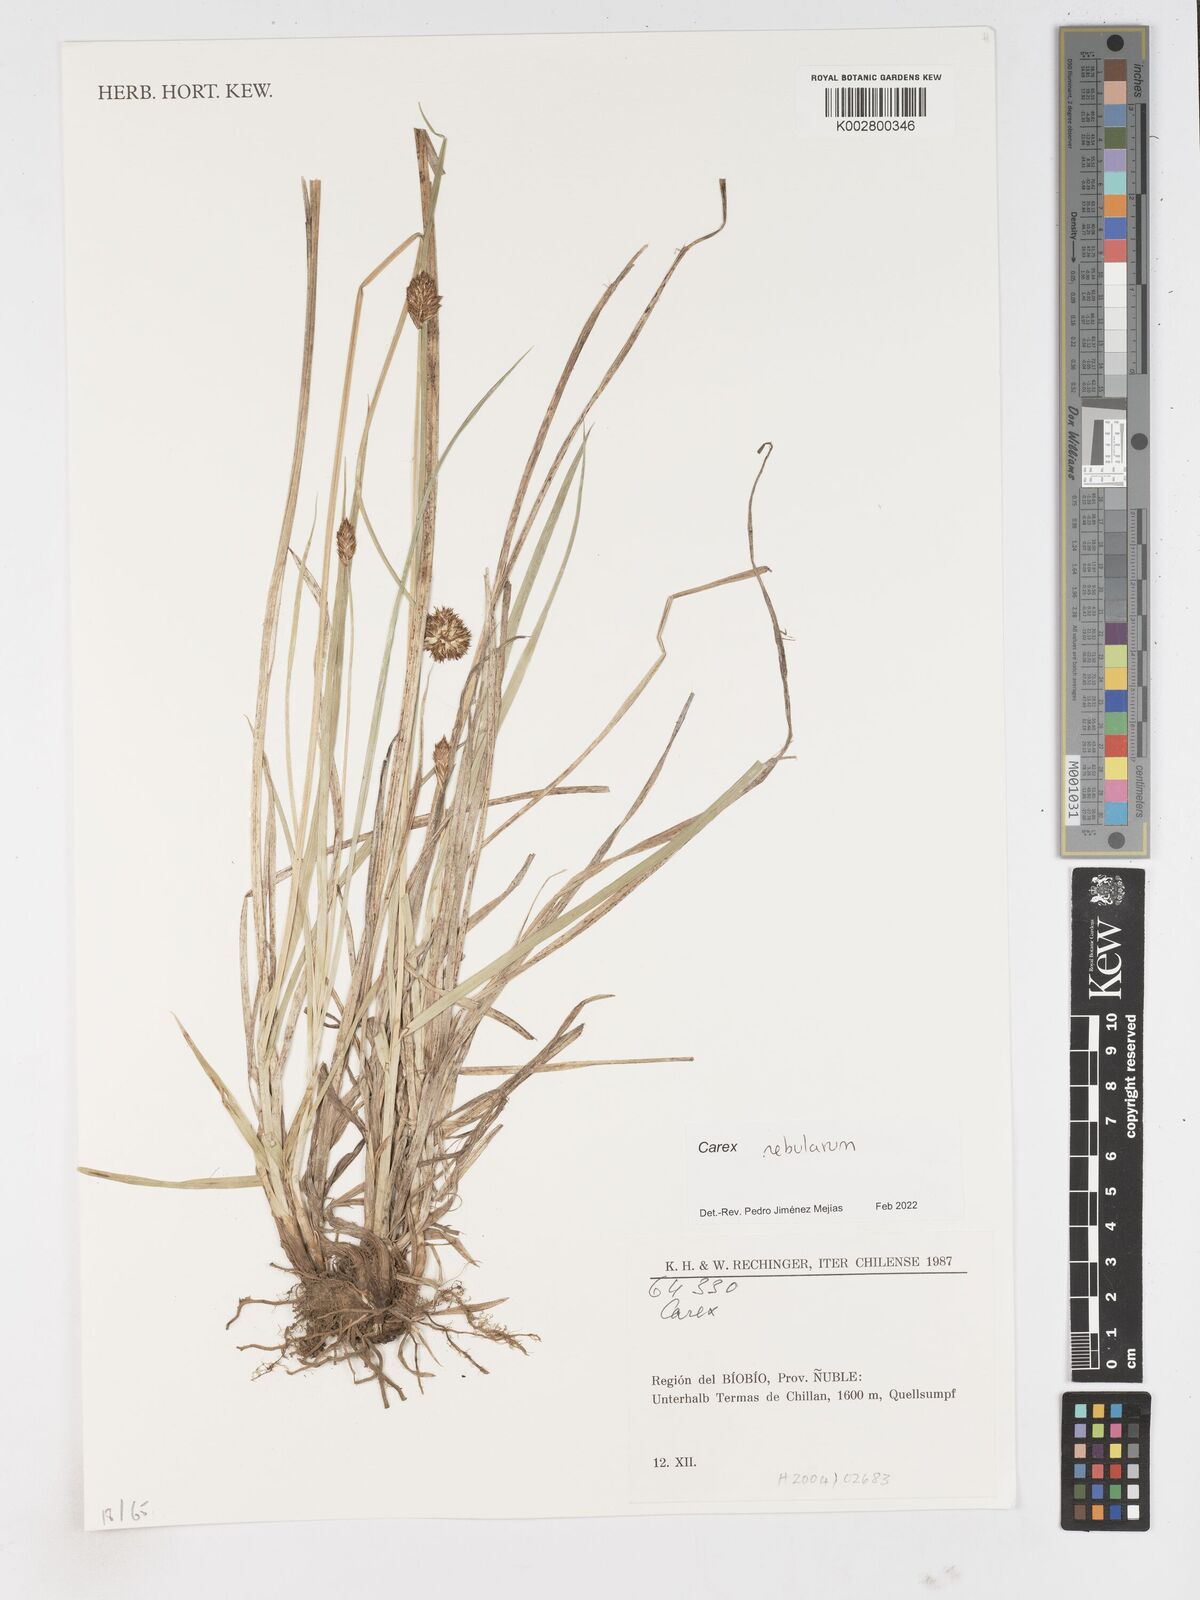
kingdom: Plantae
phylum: Tracheophyta
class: Liliopsida
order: Poales
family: Cyperaceae
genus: Carex
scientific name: Carex nebularum
